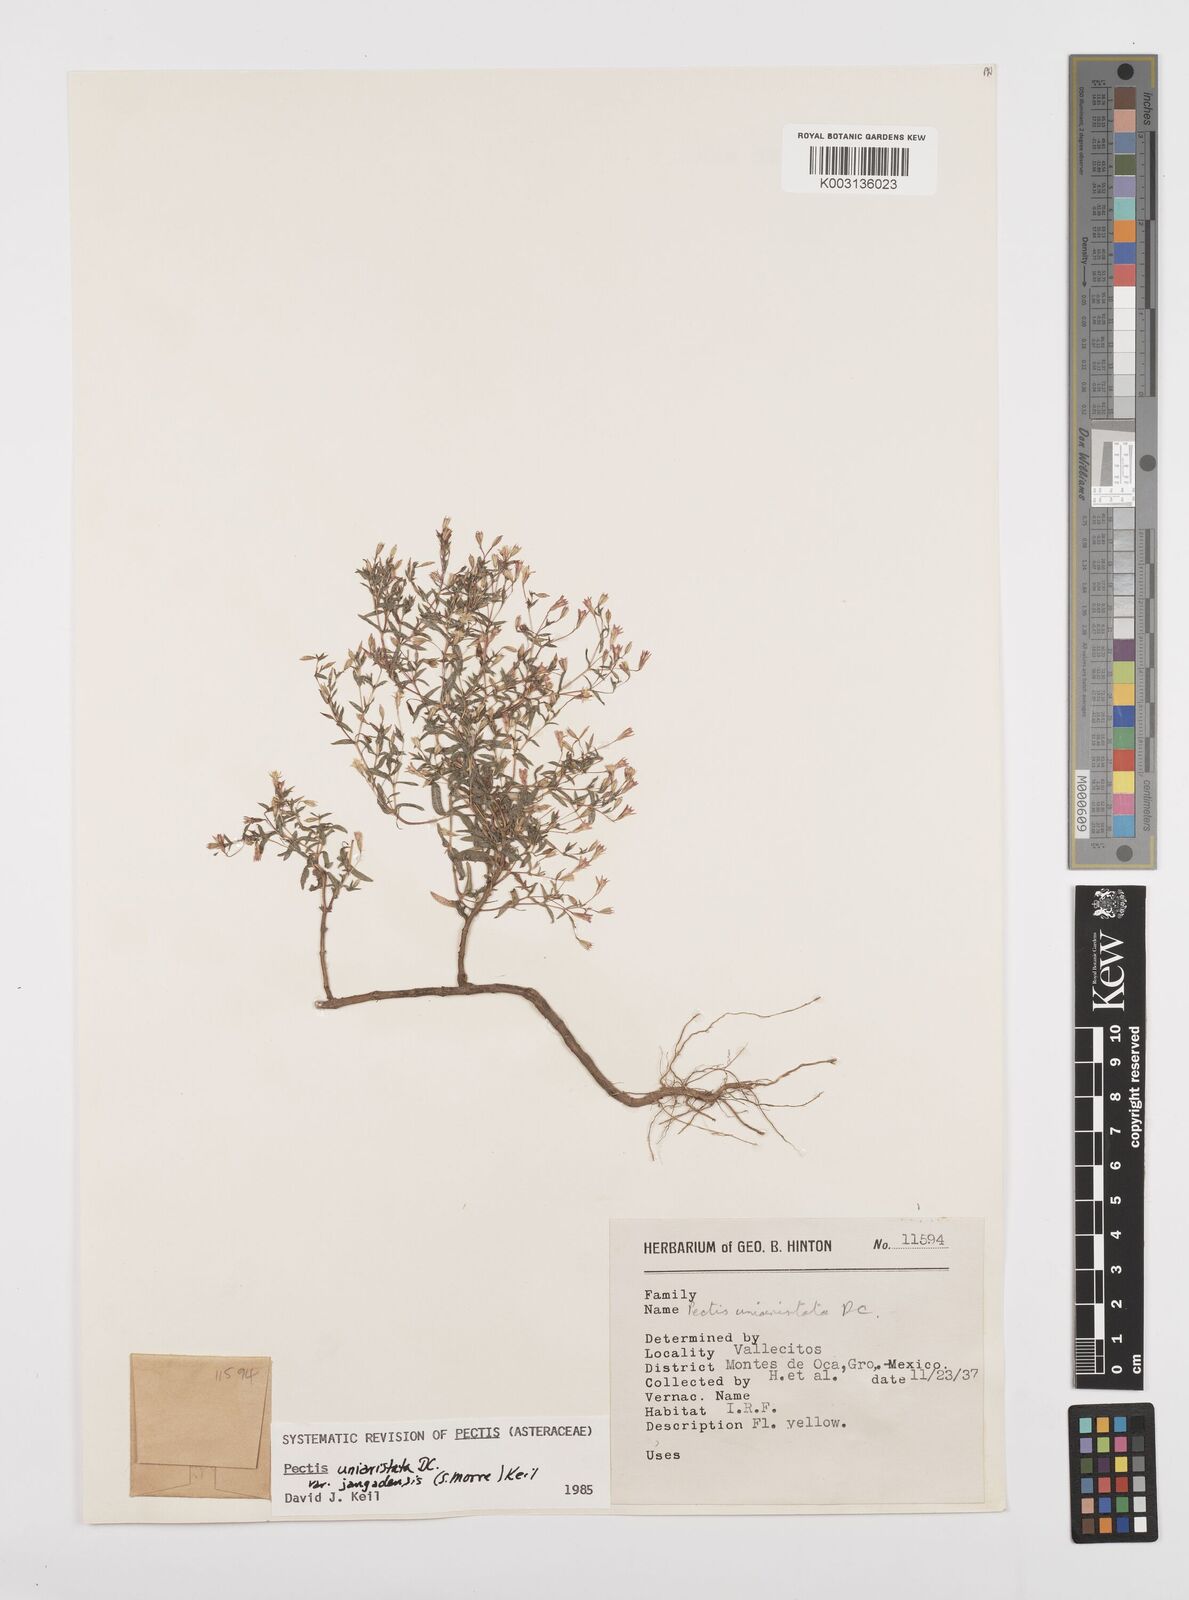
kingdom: Plantae
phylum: Tracheophyta
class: Magnoliopsida
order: Asterales
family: Asteraceae
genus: Pectis
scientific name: Pectis uniaristata
